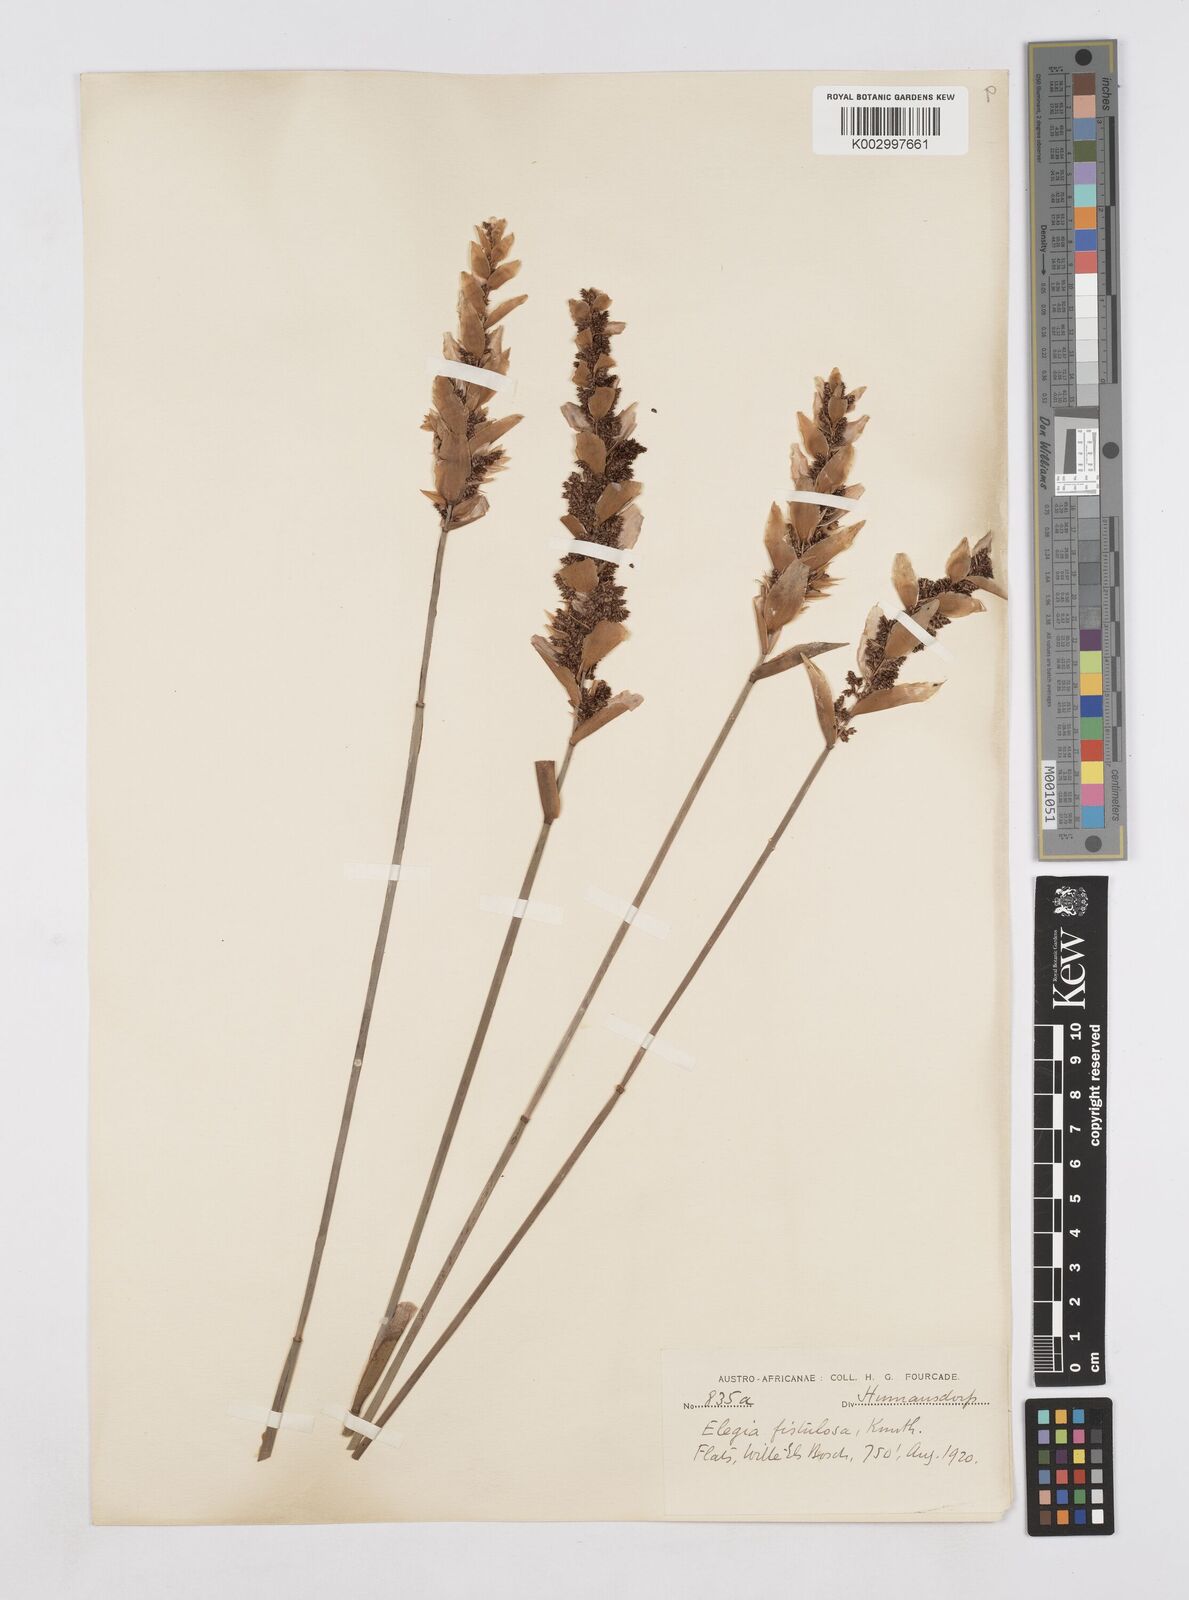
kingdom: Plantae
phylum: Tracheophyta
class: Liliopsida
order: Poales
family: Restionaceae
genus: Elegia
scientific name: Elegia fistulosa
